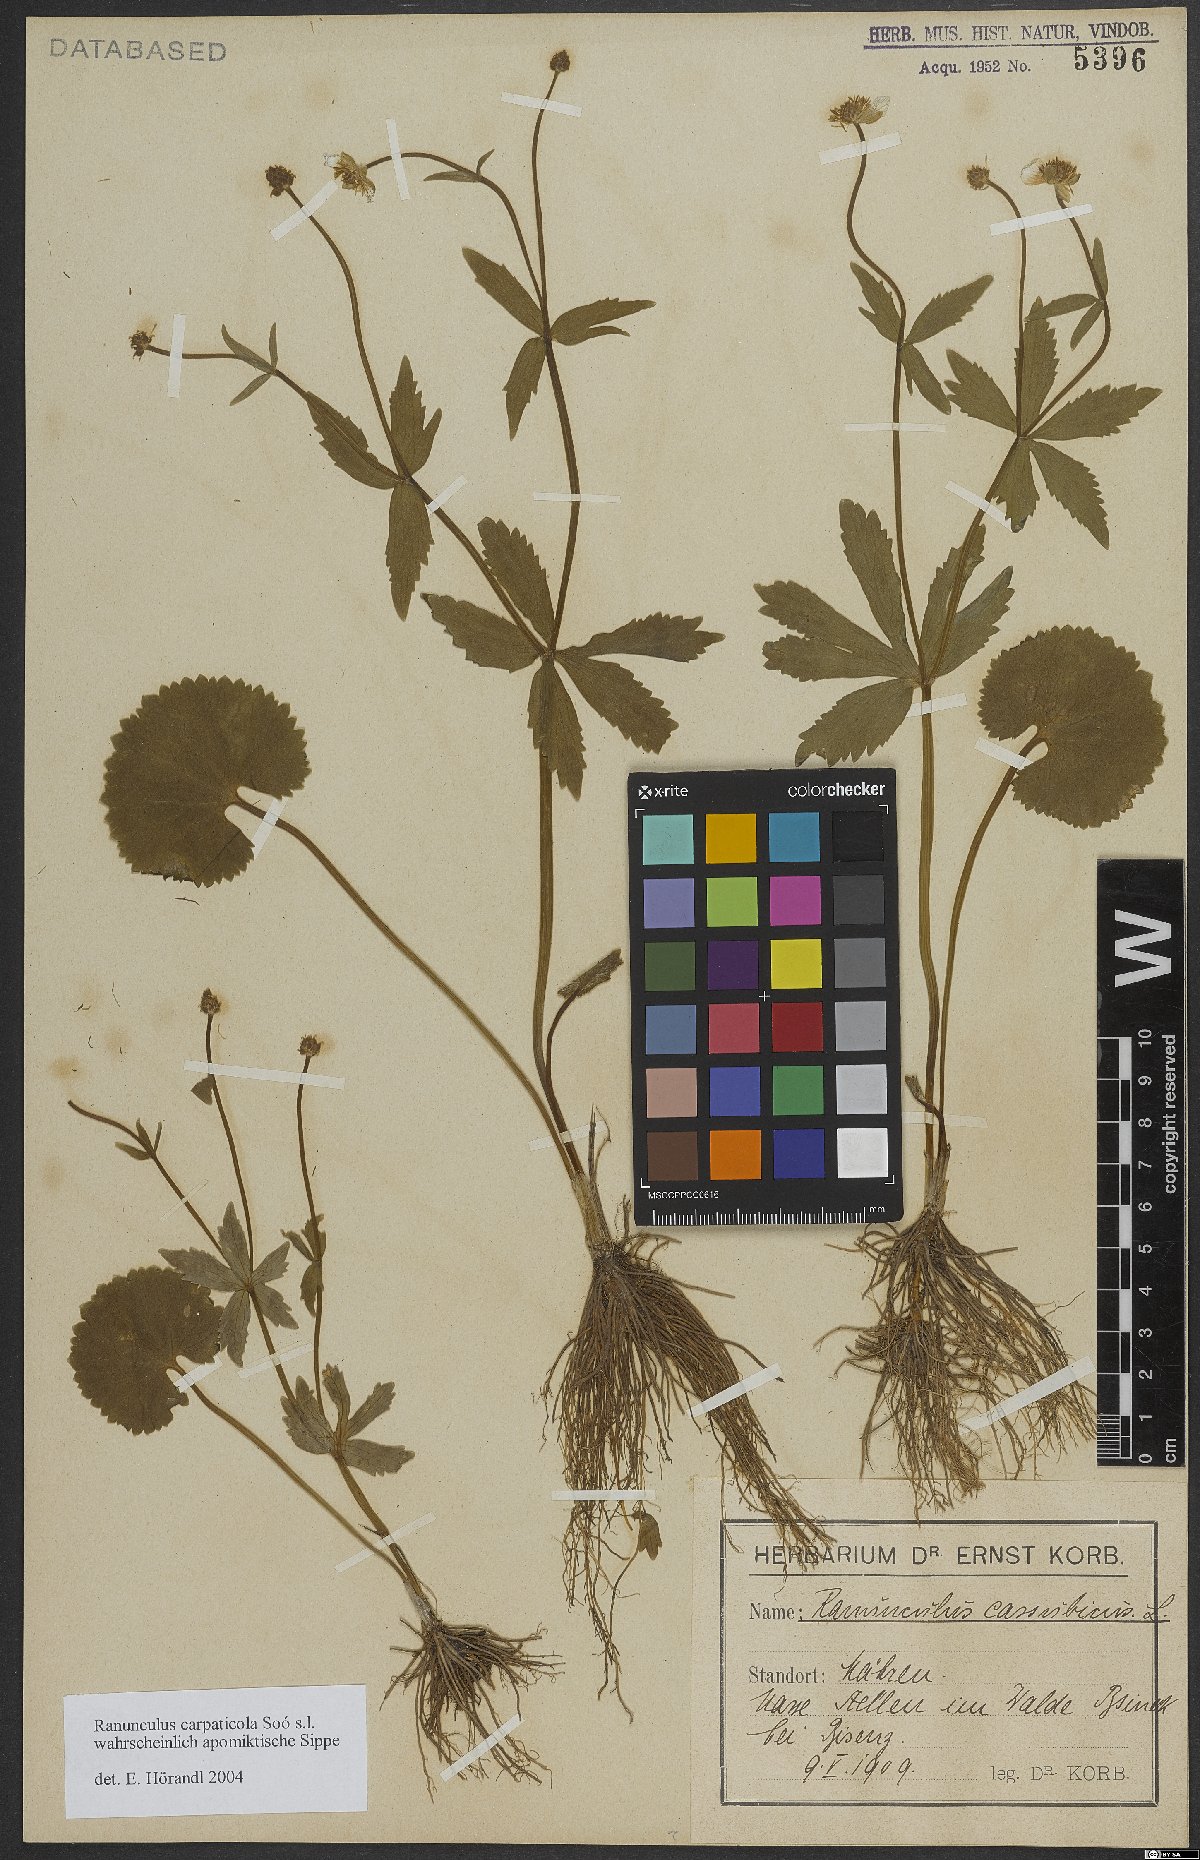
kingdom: Plantae
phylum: Tracheophyta
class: Magnoliopsida
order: Ranunculales
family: Ranunculaceae
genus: Ranunculus
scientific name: Ranunculus cassubicifolius
